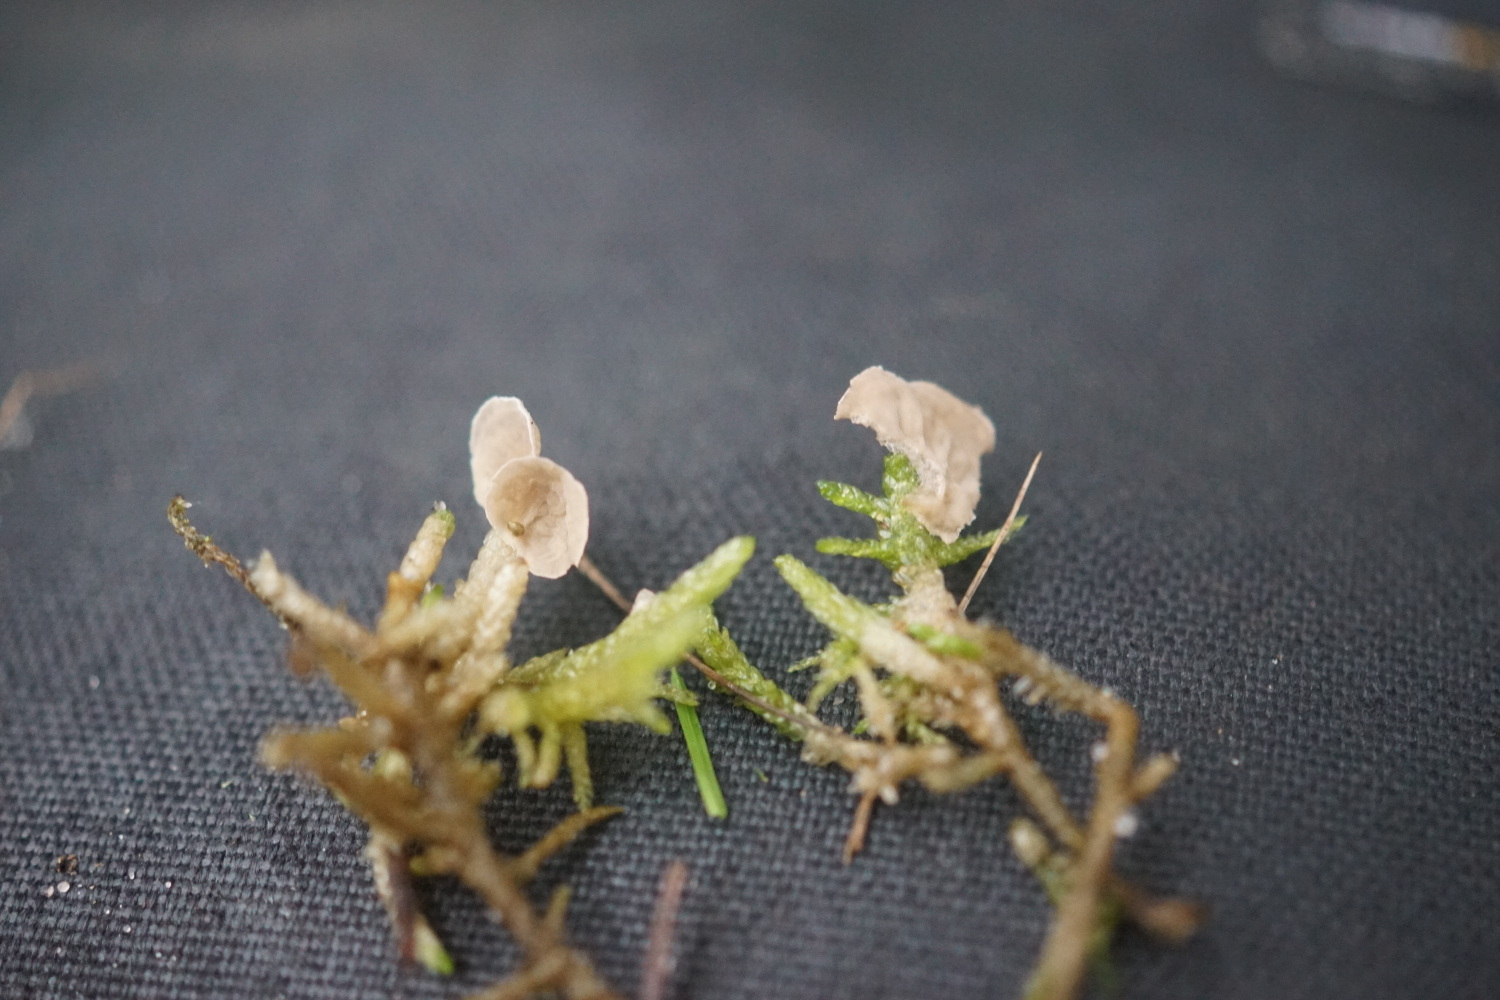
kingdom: Fungi
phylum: Basidiomycota
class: Agaricomycetes
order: Agaricales
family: Hygrophoraceae
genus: Arrhenia
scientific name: Arrhenia retiruga
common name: lille fontænehat
